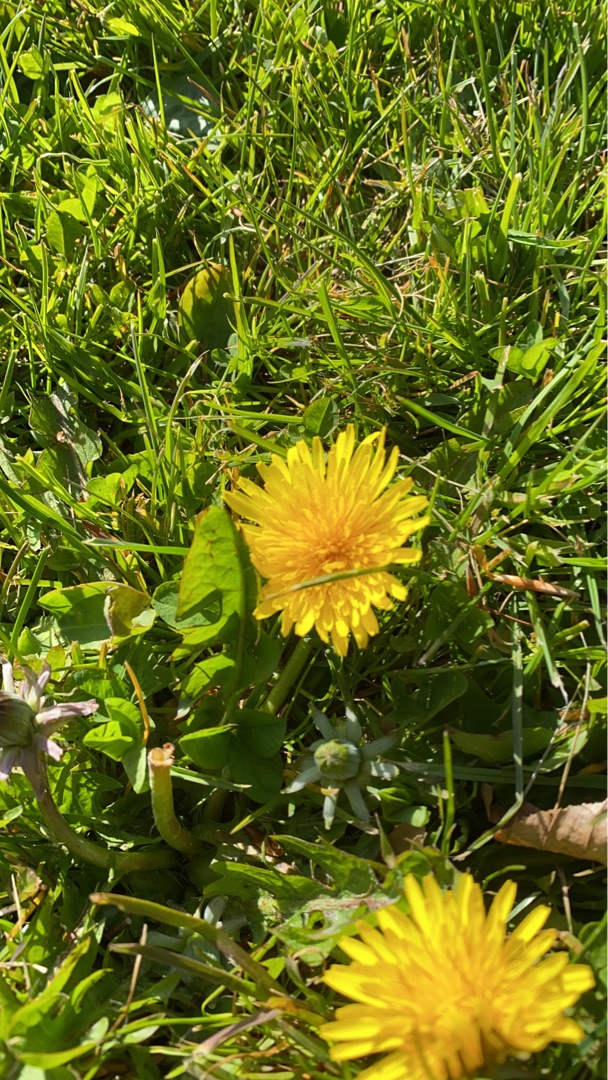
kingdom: Plantae
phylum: Tracheophyta
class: Magnoliopsida
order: Asterales
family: Asteraceae
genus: Taraxacum
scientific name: Taraxacum
